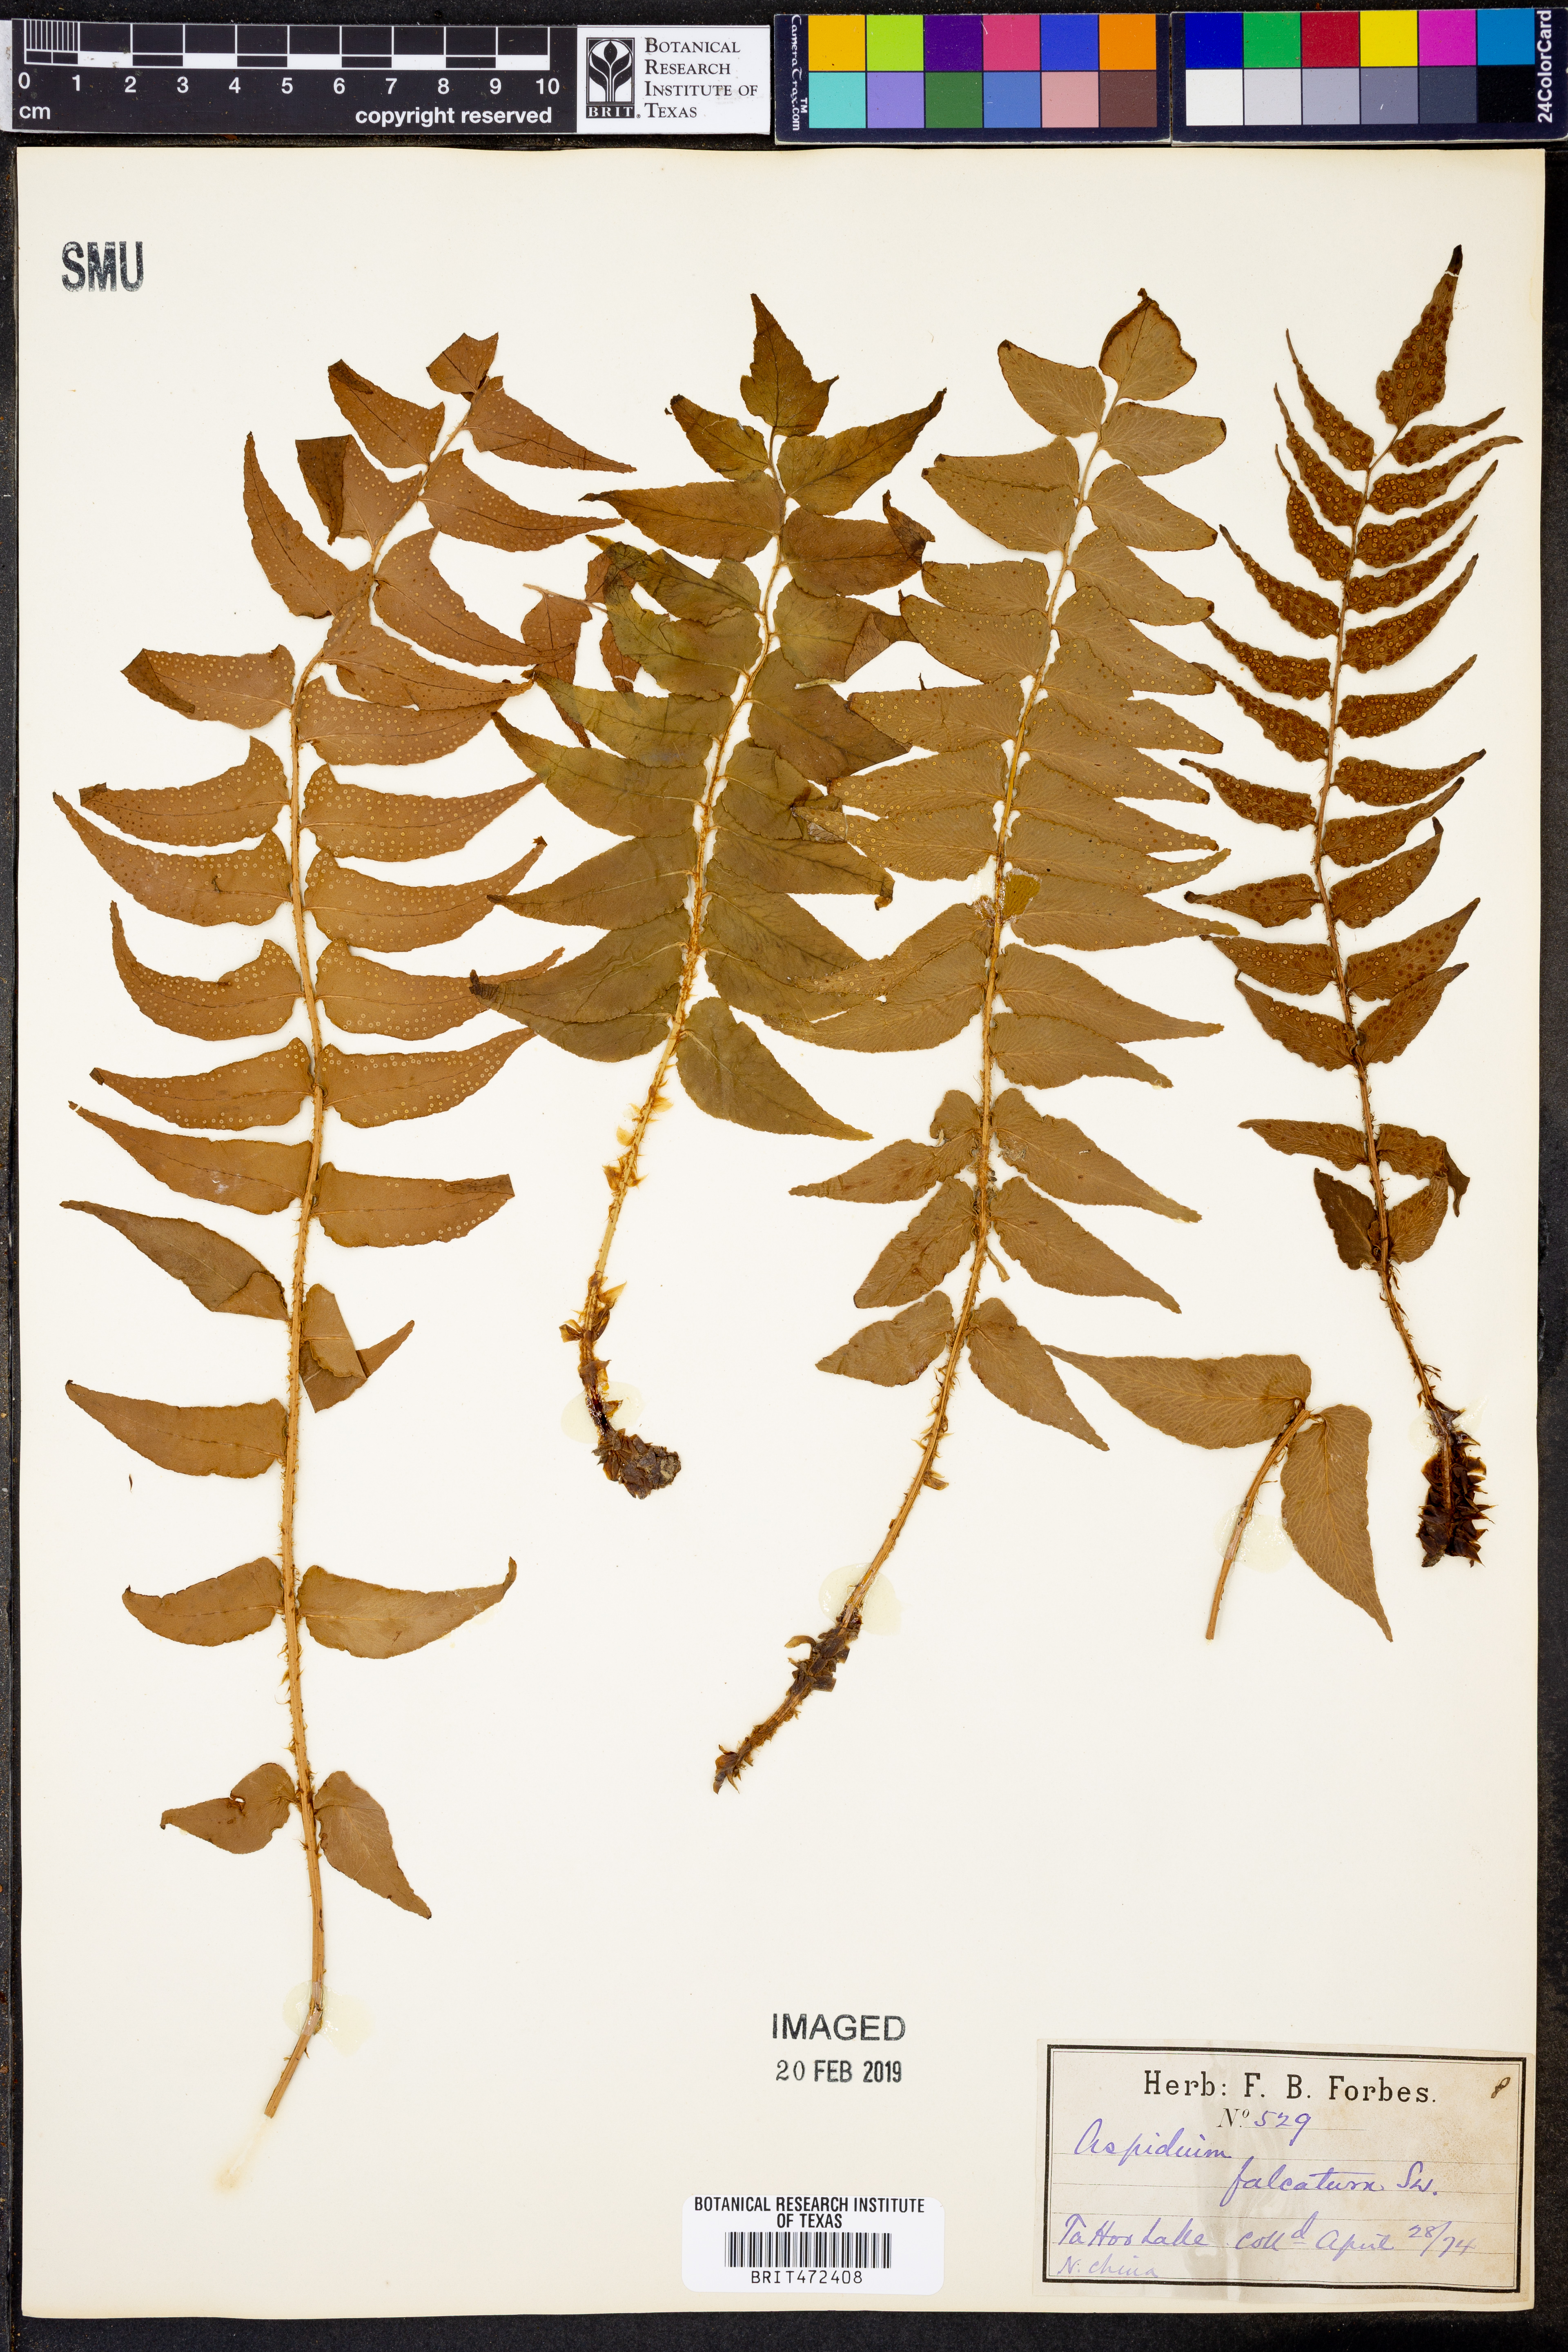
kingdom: Plantae
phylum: Tracheophyta
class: Polypodiopsida
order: Polypodiales
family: Dryopteridaceae
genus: Cyrtomium
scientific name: Cyrtomium falcatum
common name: House holly-fern
